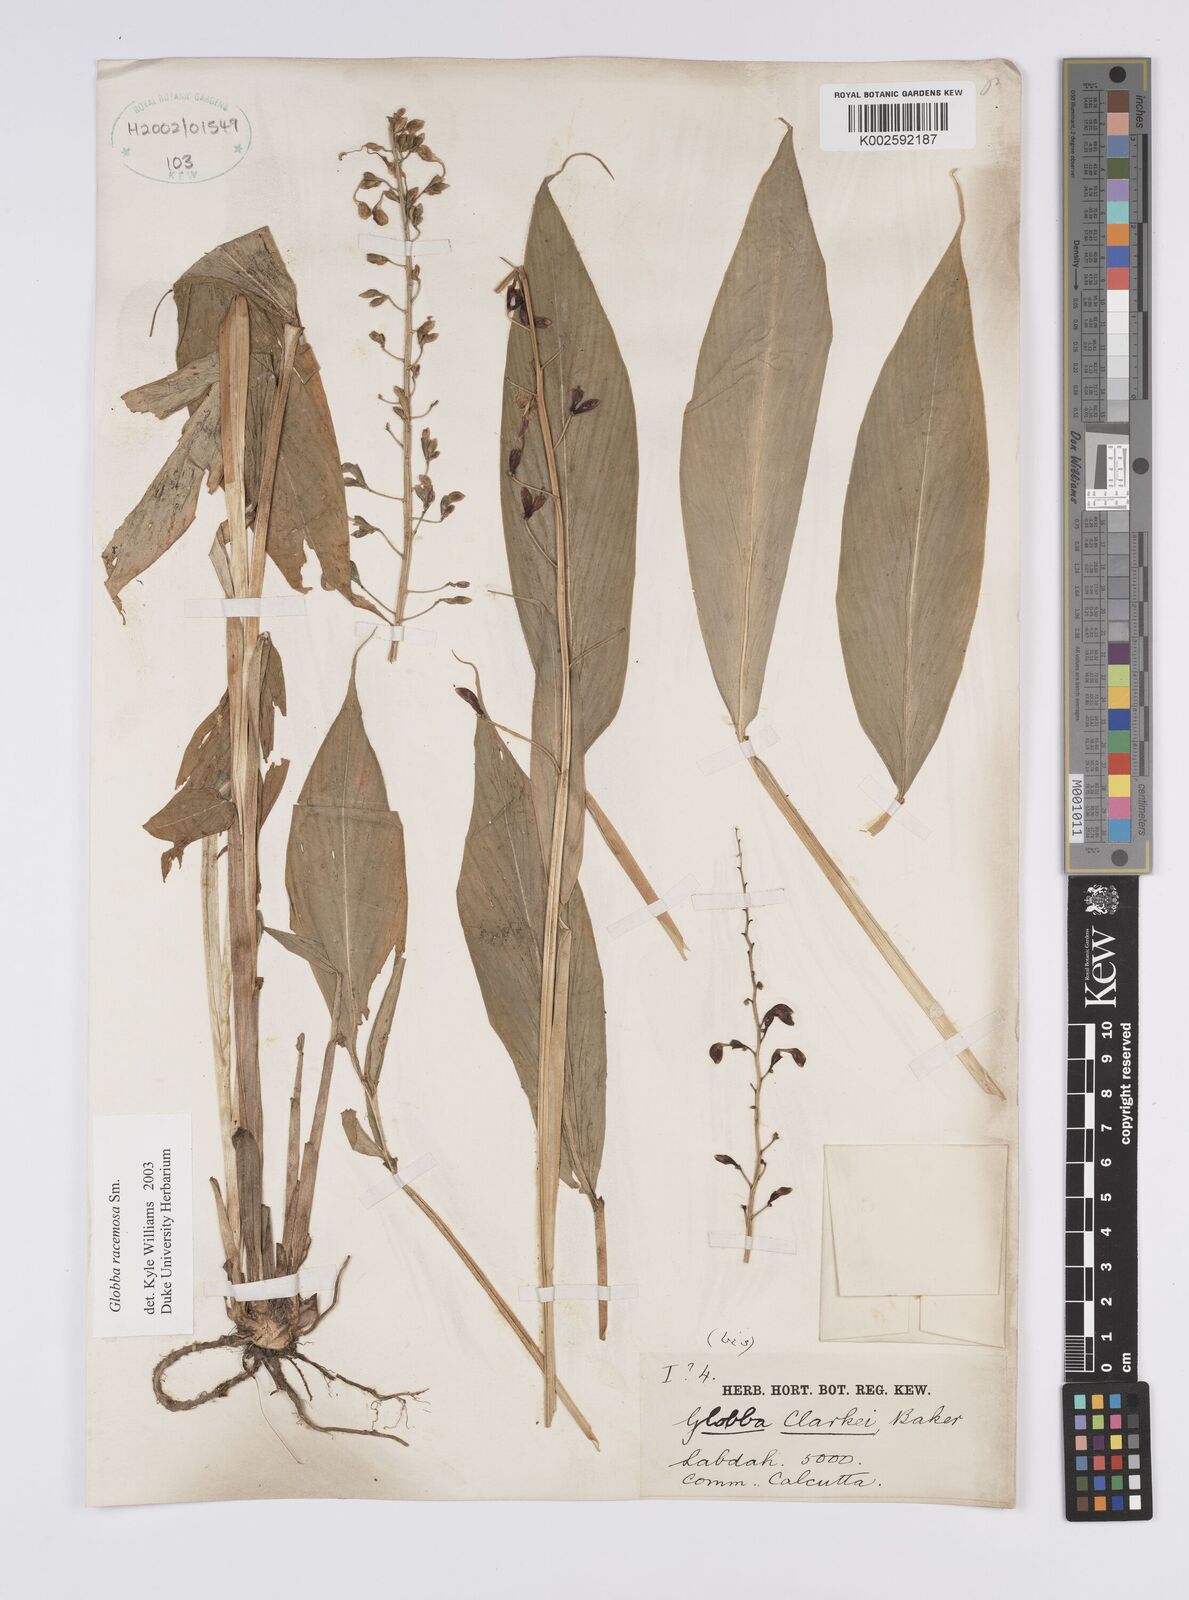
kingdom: Plantae
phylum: Tracheophyta
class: Liliopsida
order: Zingiberales
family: Zingiberaceae
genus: Globba
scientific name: Globba racemosa
